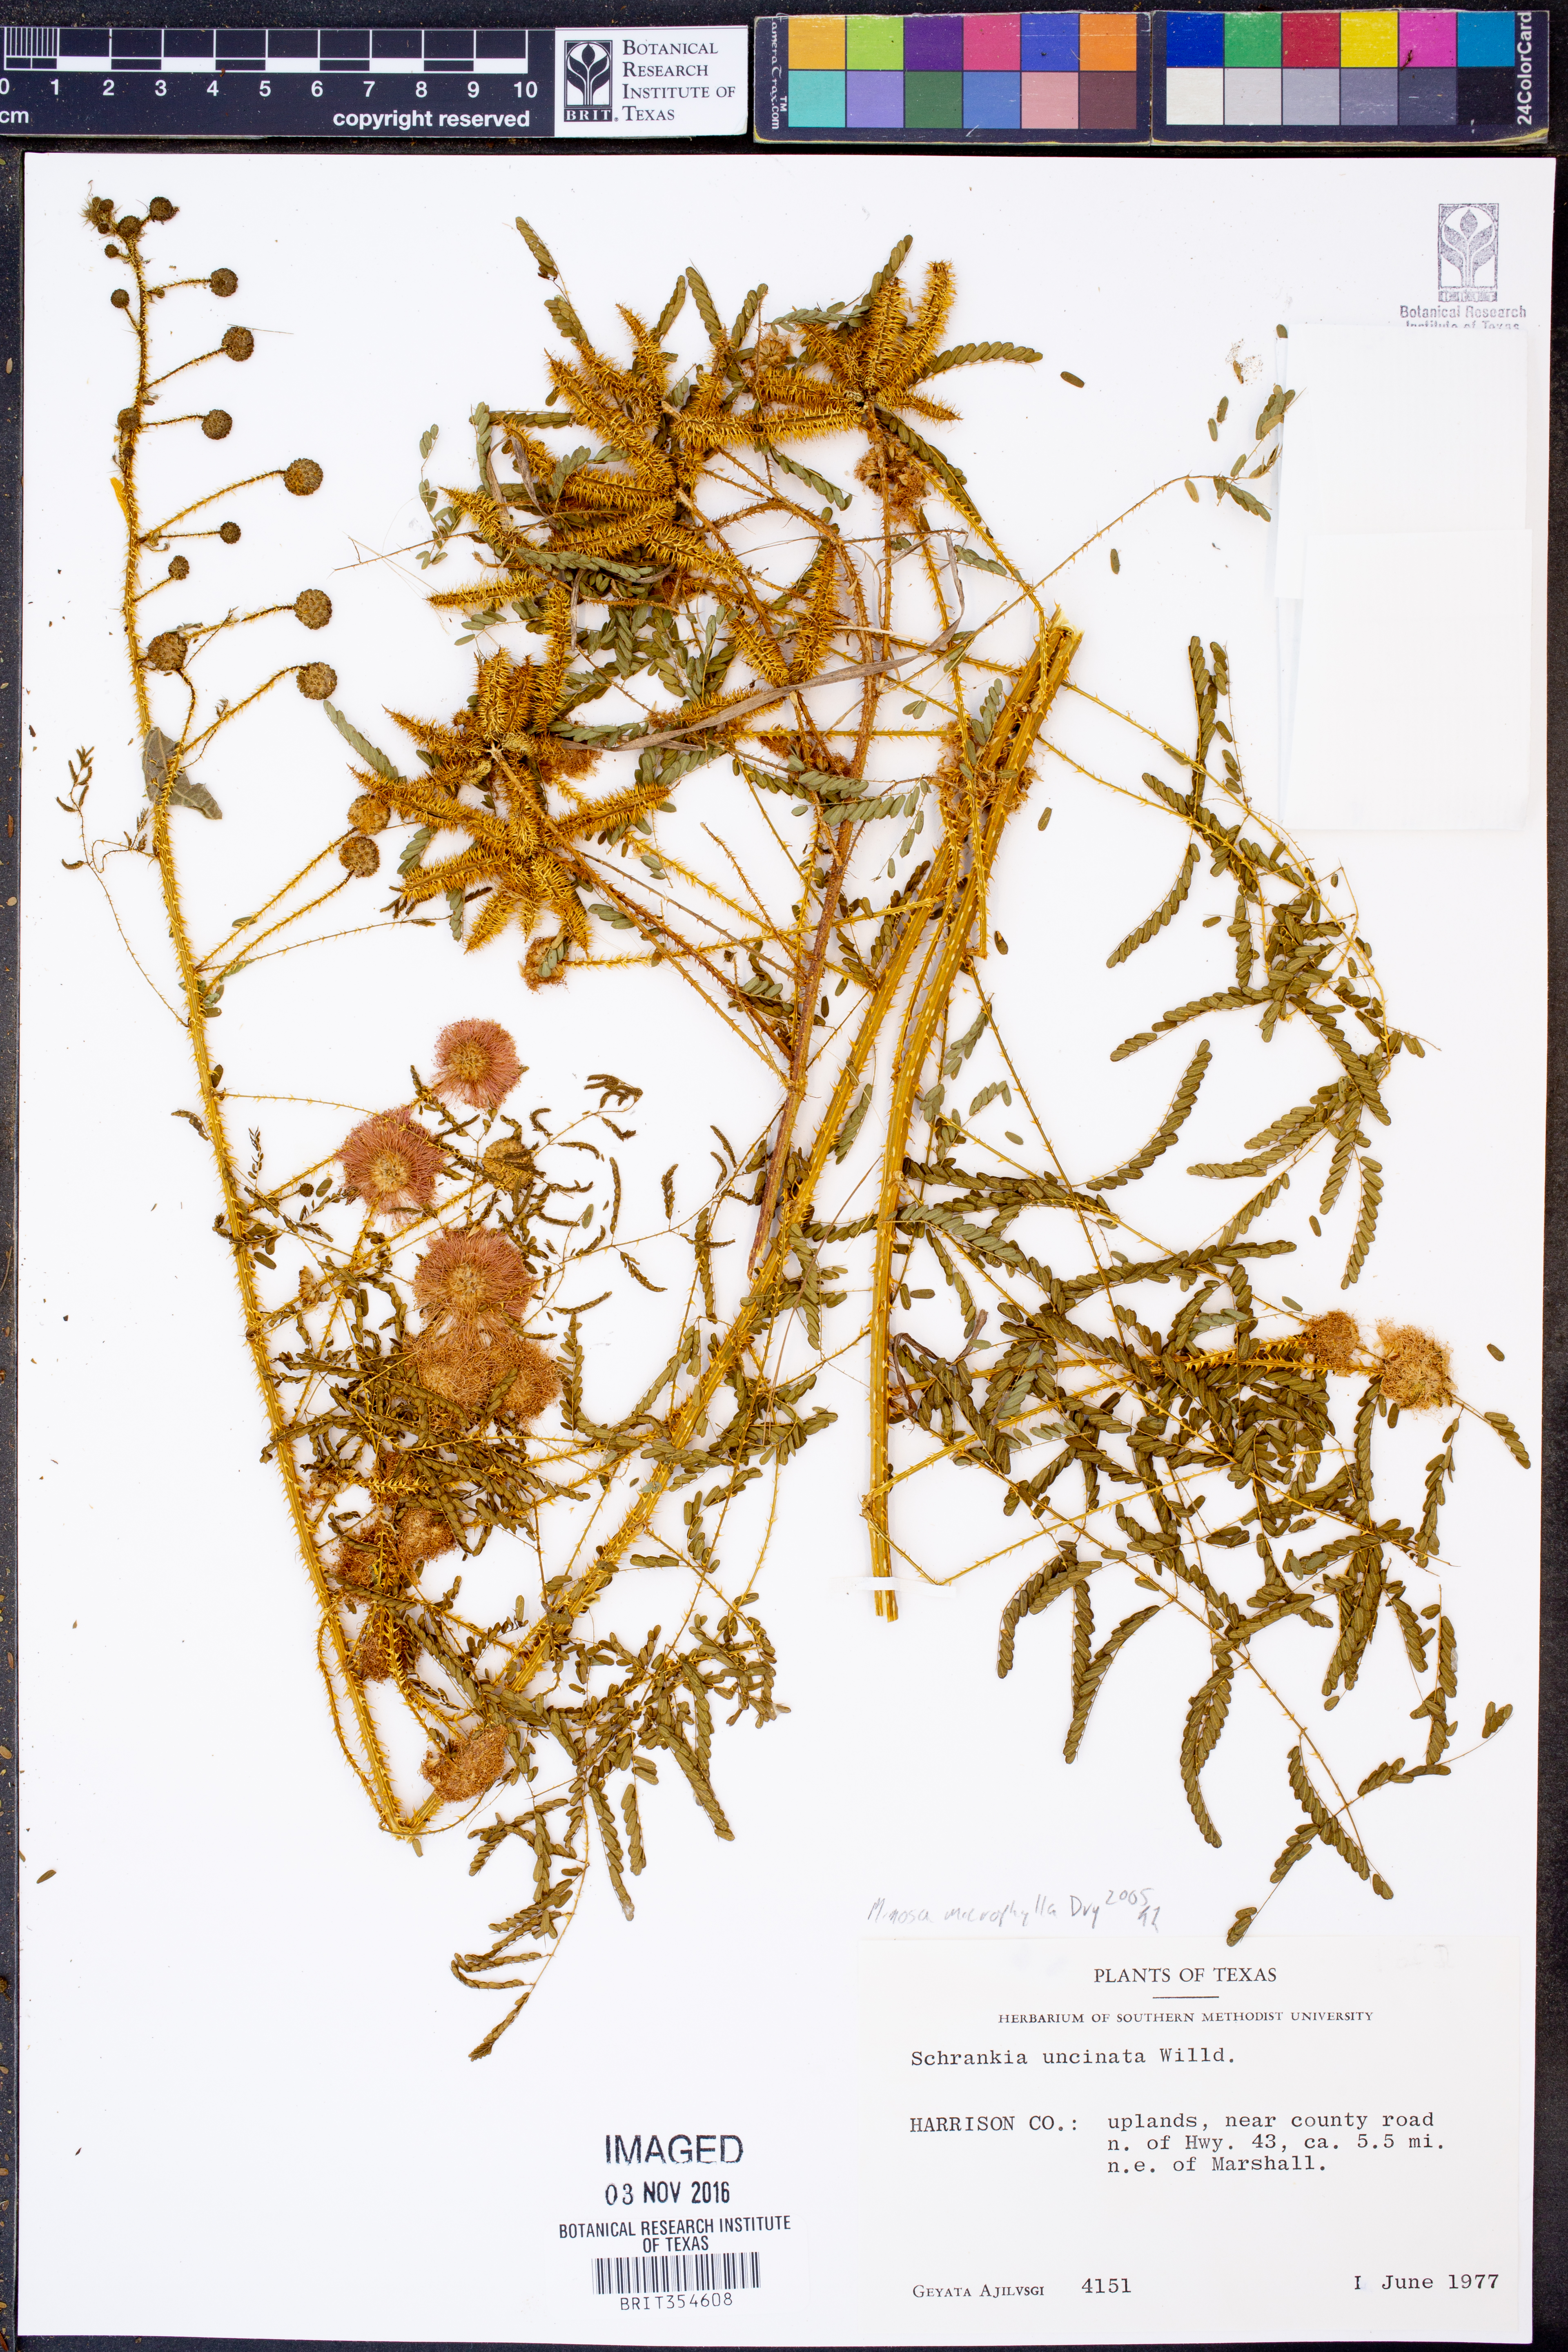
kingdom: Plantae
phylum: Tracheophyta
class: Magnoliopsida
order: Fabales
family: Fabaceae
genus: Mimosa
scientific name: Mimosa quadrivalvis
